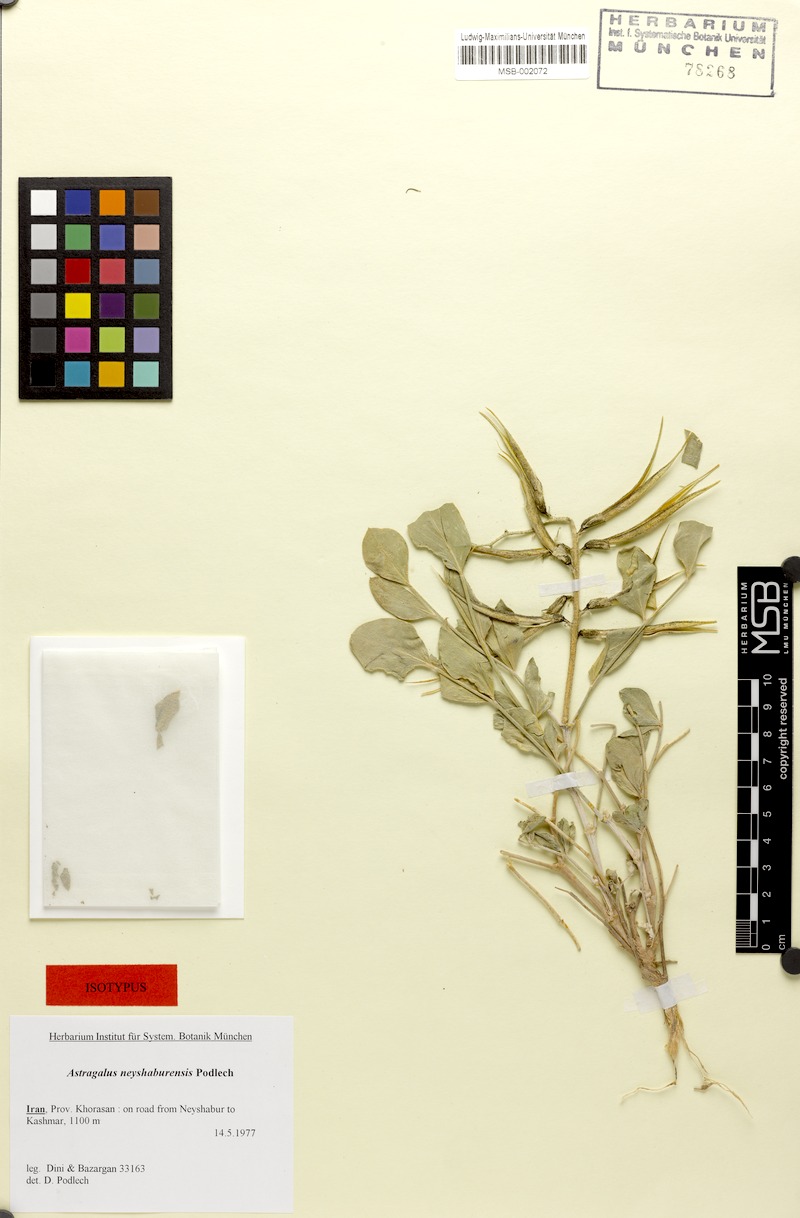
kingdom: Plantae
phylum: Tracheophyta
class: Magnoliopsida
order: Fabales
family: Fabaceae
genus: Astragalus
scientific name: Astragalus neyshaburensis
